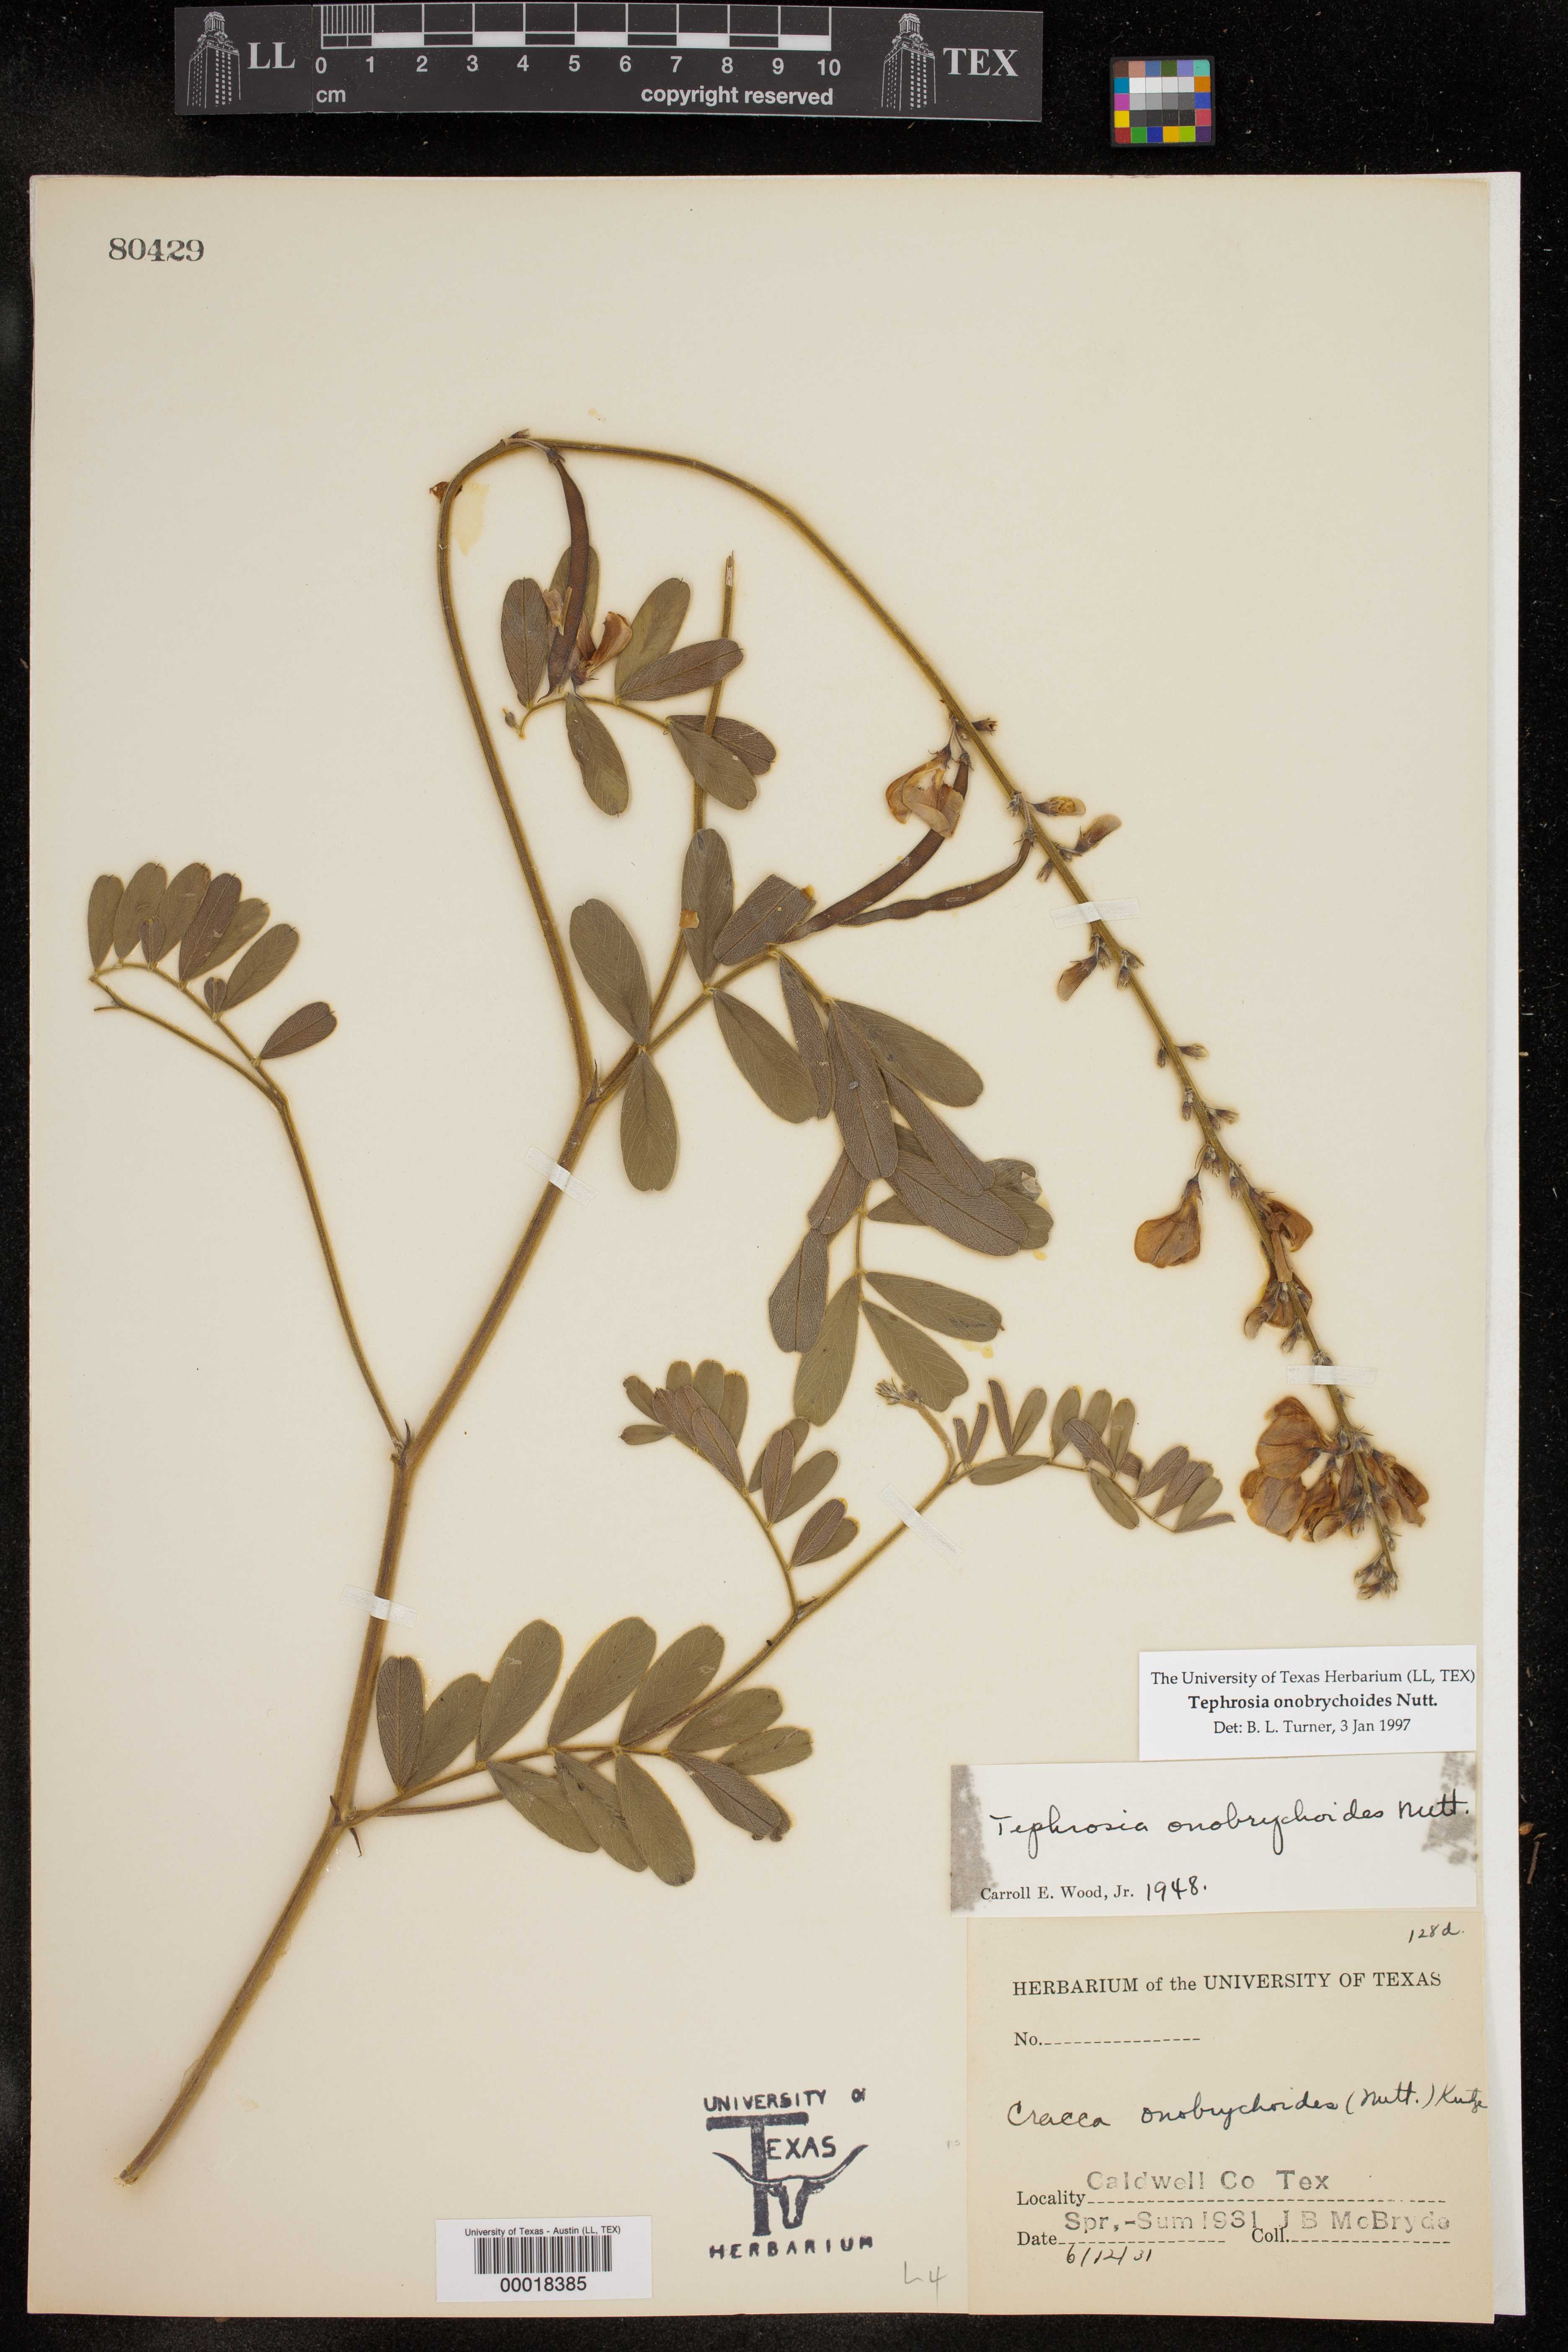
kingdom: Plantae
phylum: Tracheophyta
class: Magnoliopsida
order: Fabales
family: Fabaceae
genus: Tephrosia
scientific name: Tephrosia onobrychoides
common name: Multi-bloom hoary-pea
